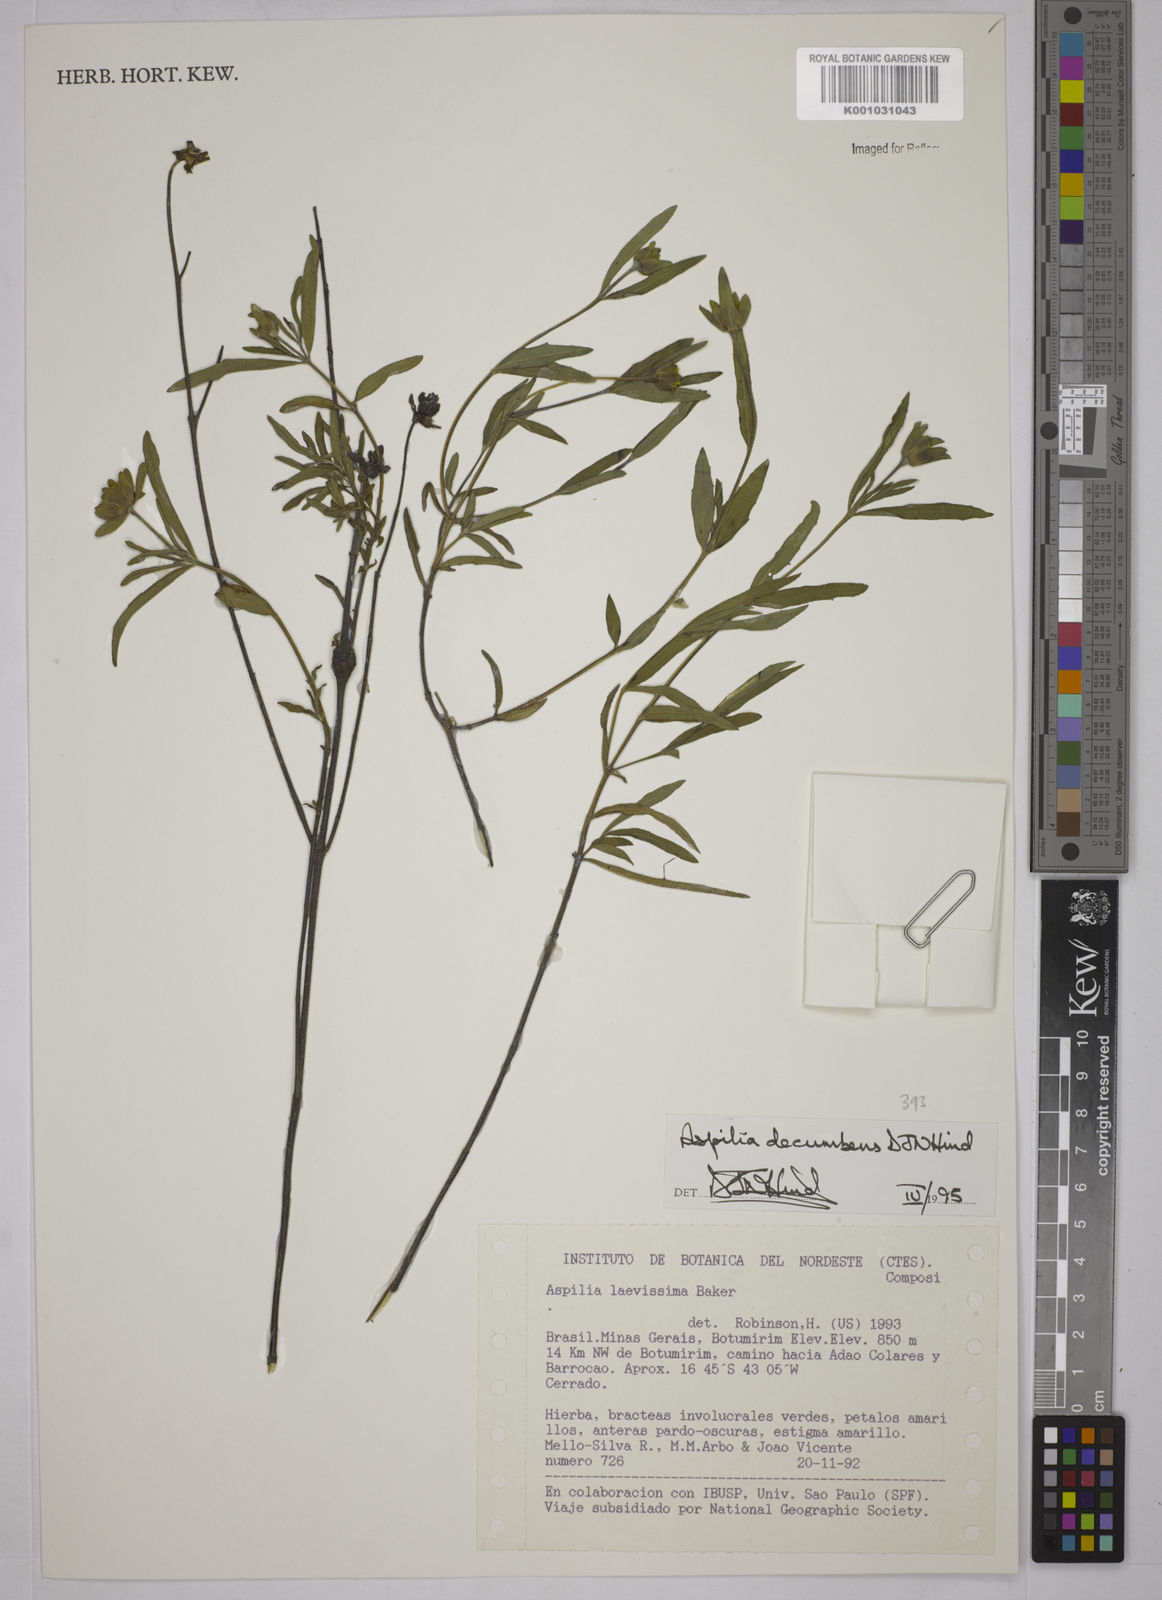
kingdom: Plantae
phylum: Tracheophyta
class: Magnoliopsida
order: Asterales
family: Asteraceae
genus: Wedelia
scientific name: Wedelia subalpestris
